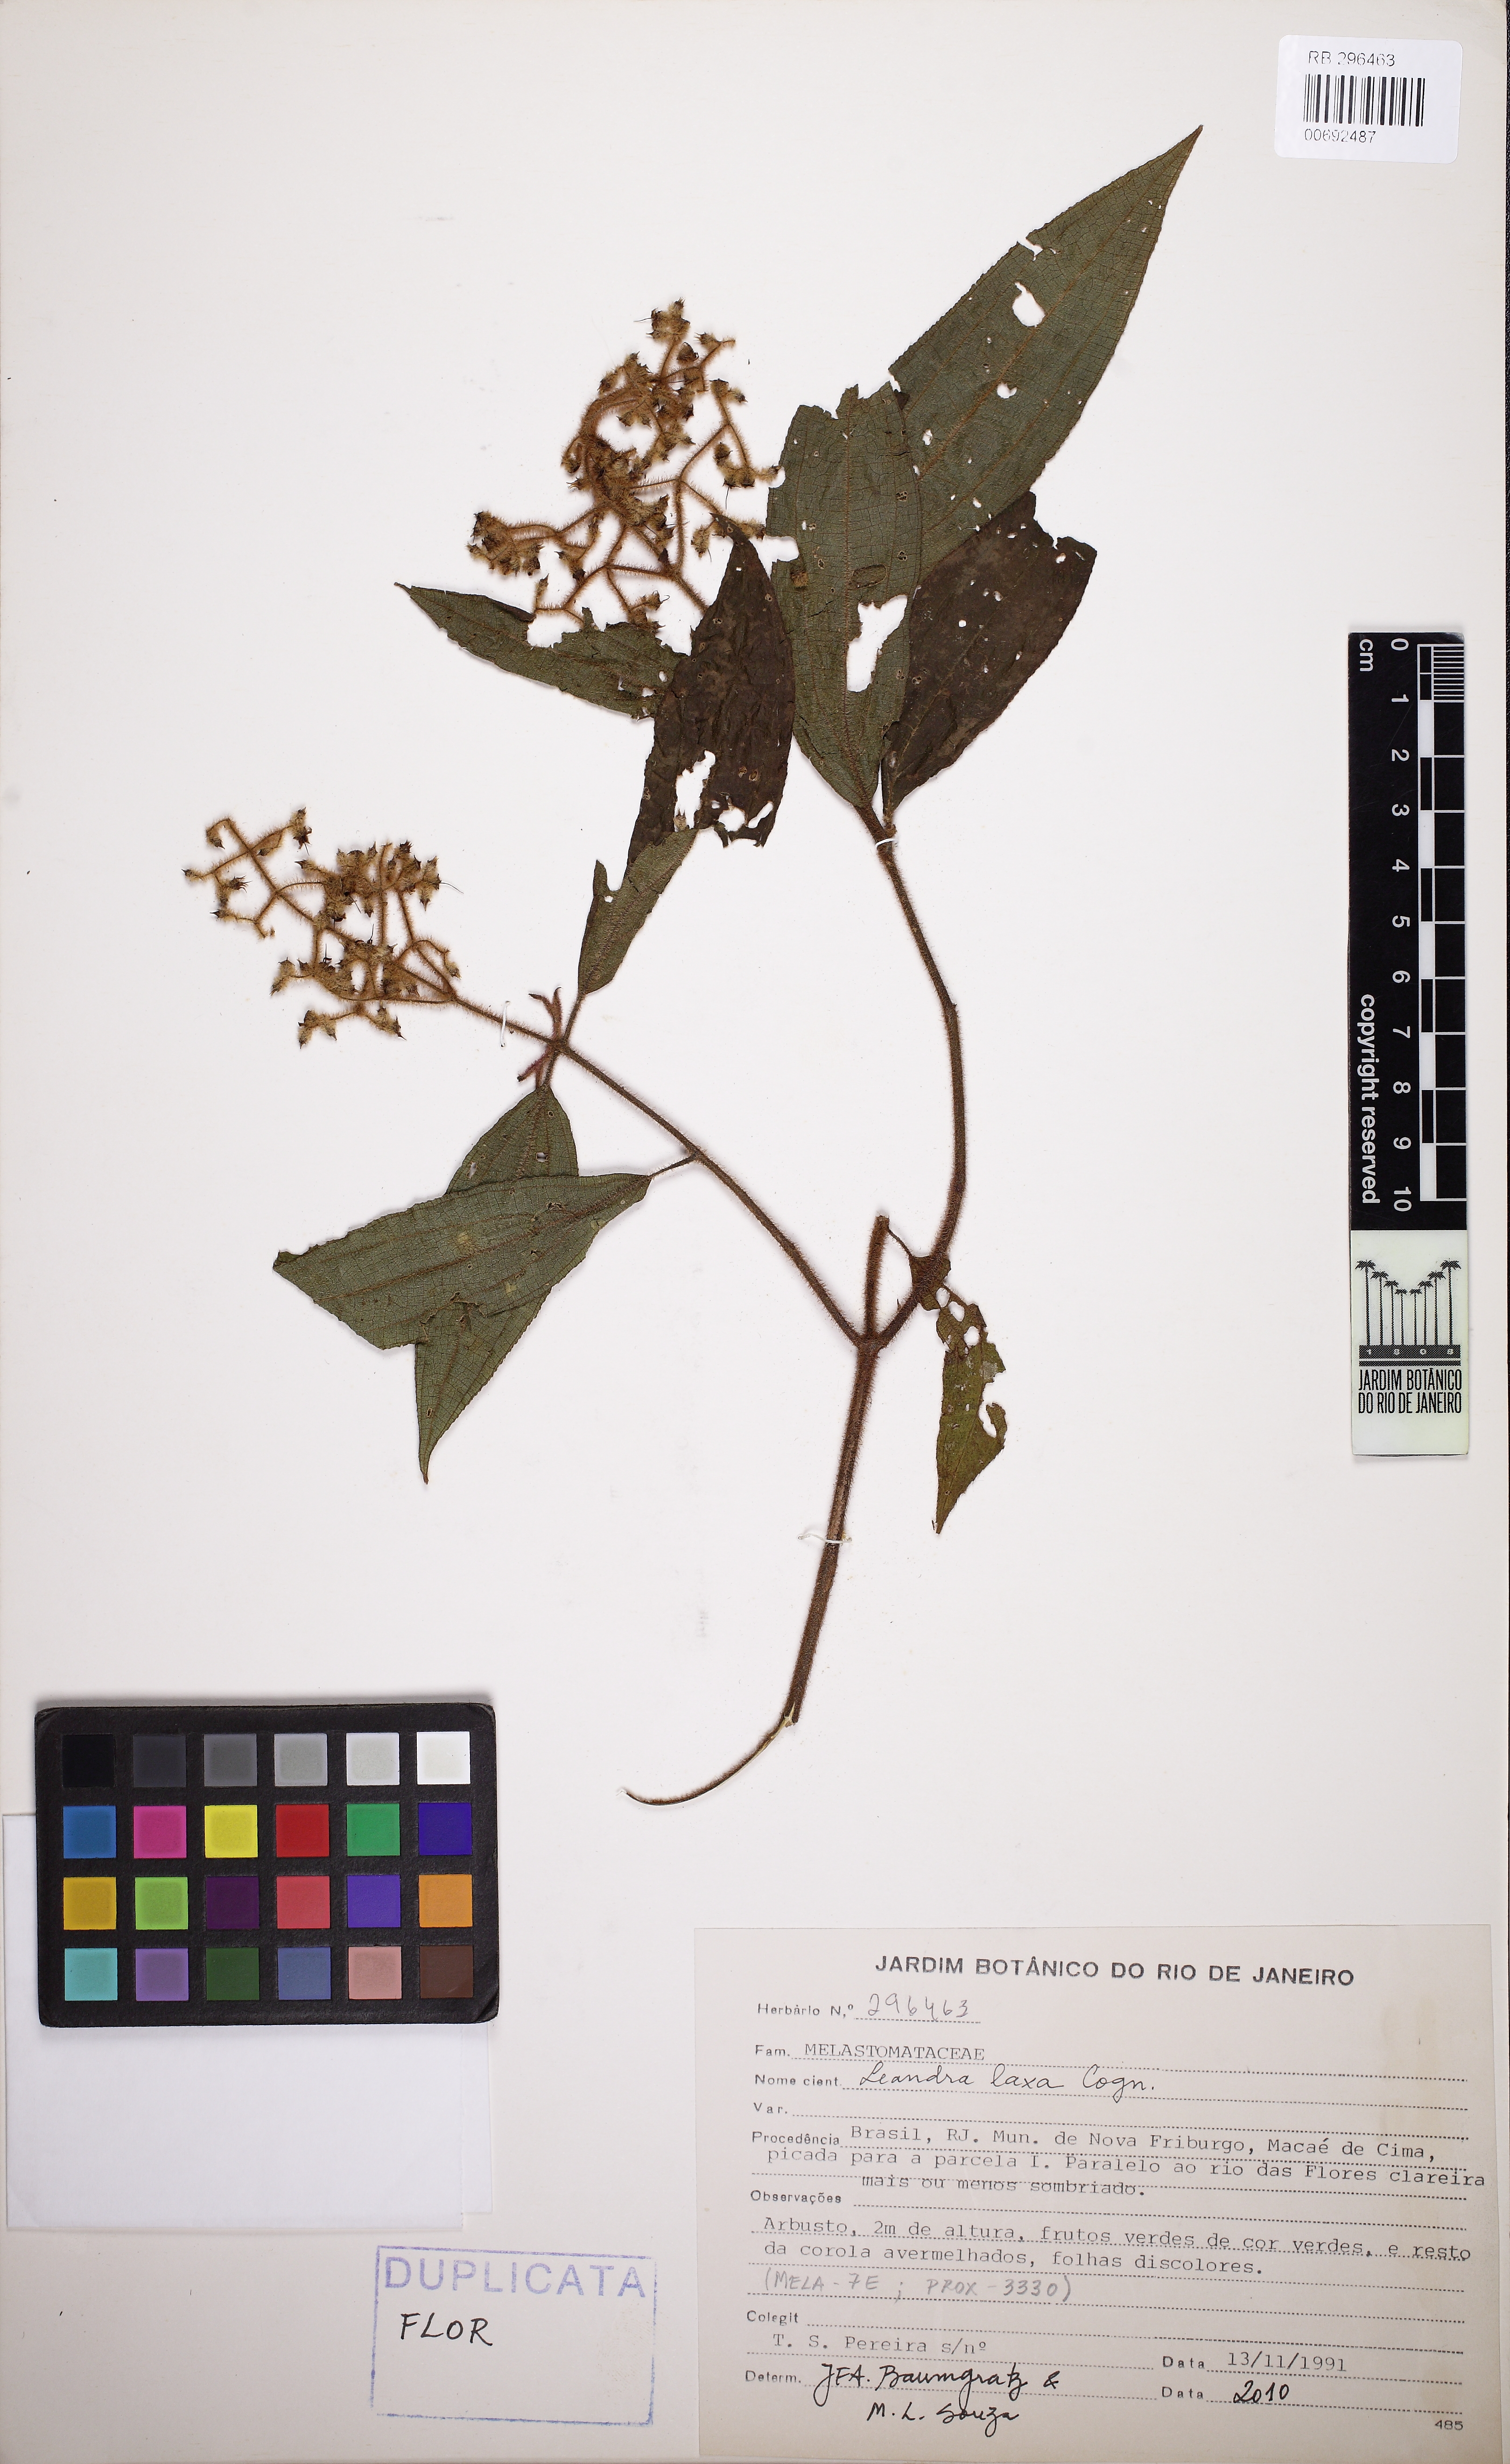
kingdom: Plantae
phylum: Tracheophyta
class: Magnoliopsida
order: Myrtales
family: Melastomataceae
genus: Miconia
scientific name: Miconia leaeriocalyx
